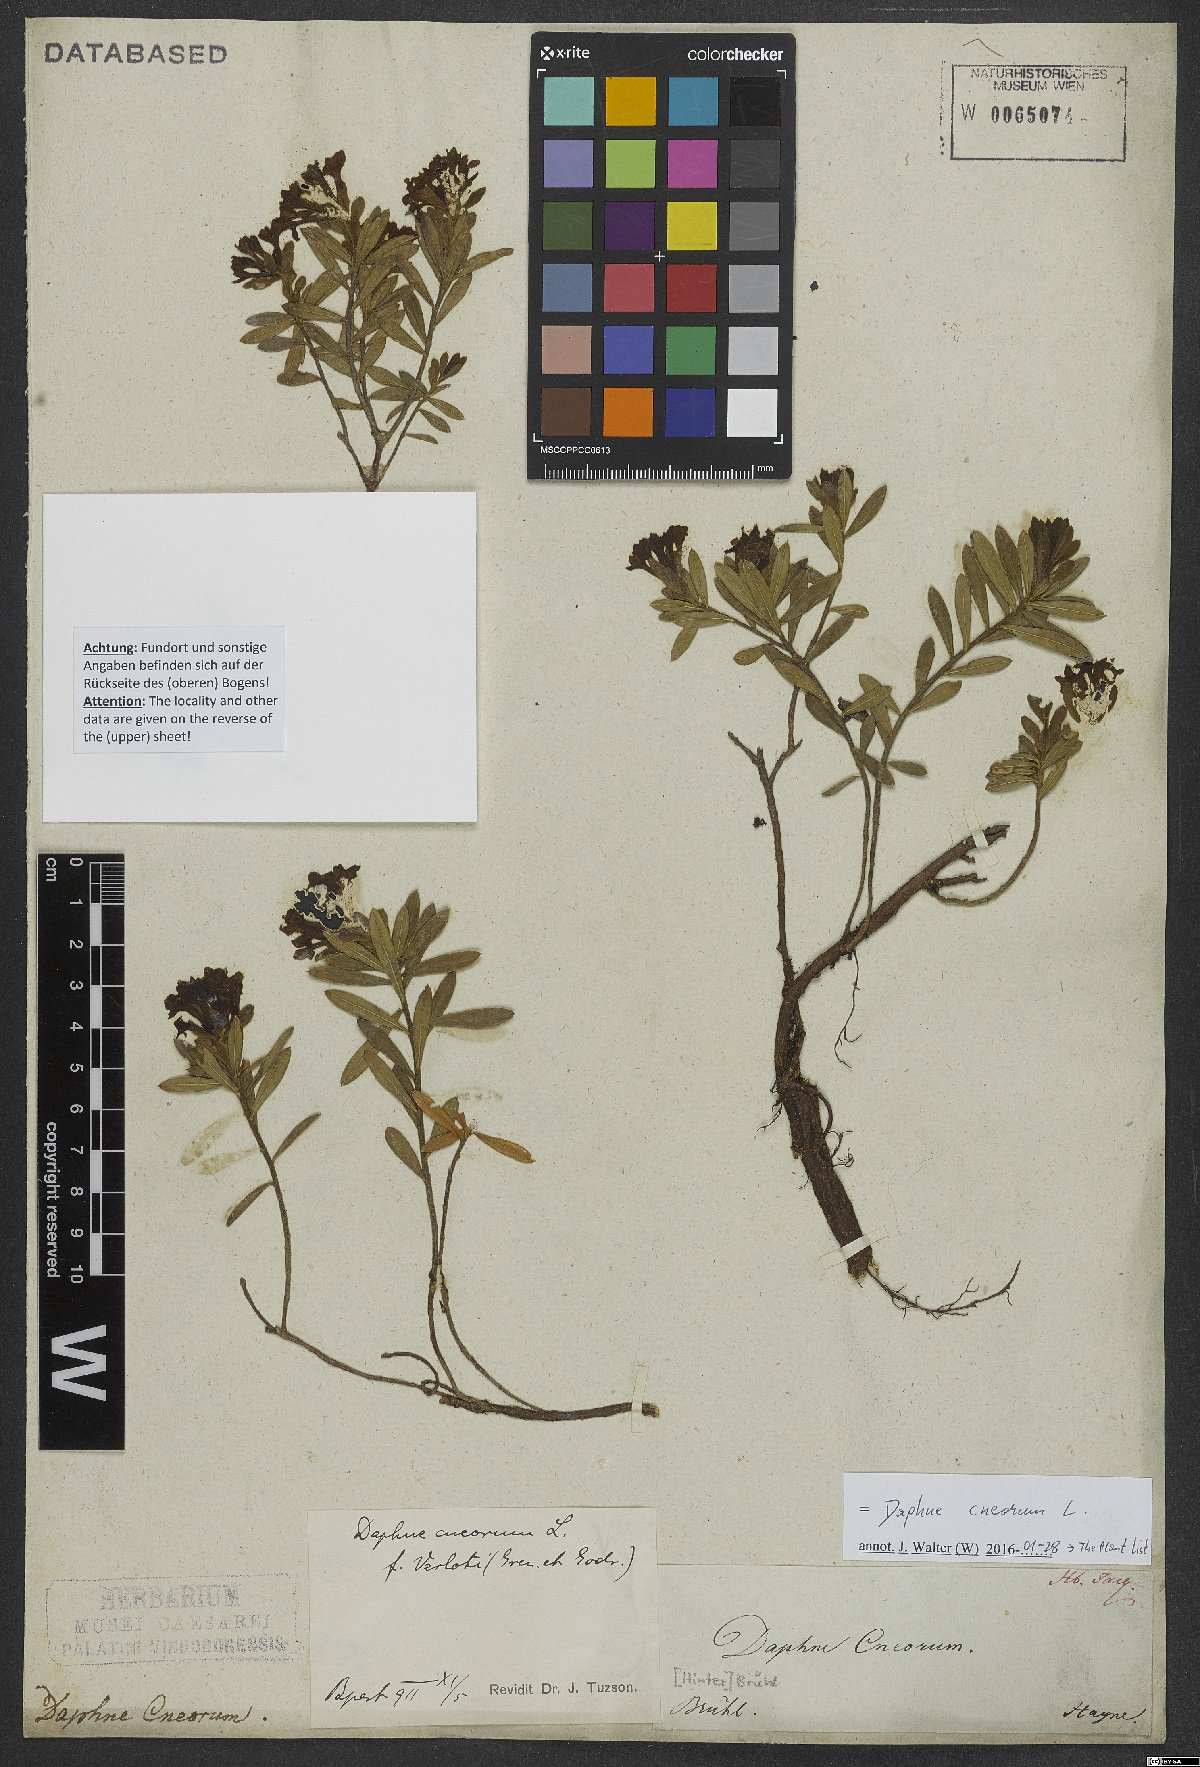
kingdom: Plantae
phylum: Tracheophyta
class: Magnoliopsida
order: Malvales
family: Thymelaeaceae
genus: Daphne
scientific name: Daphne cneorum
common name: Garland-flower
